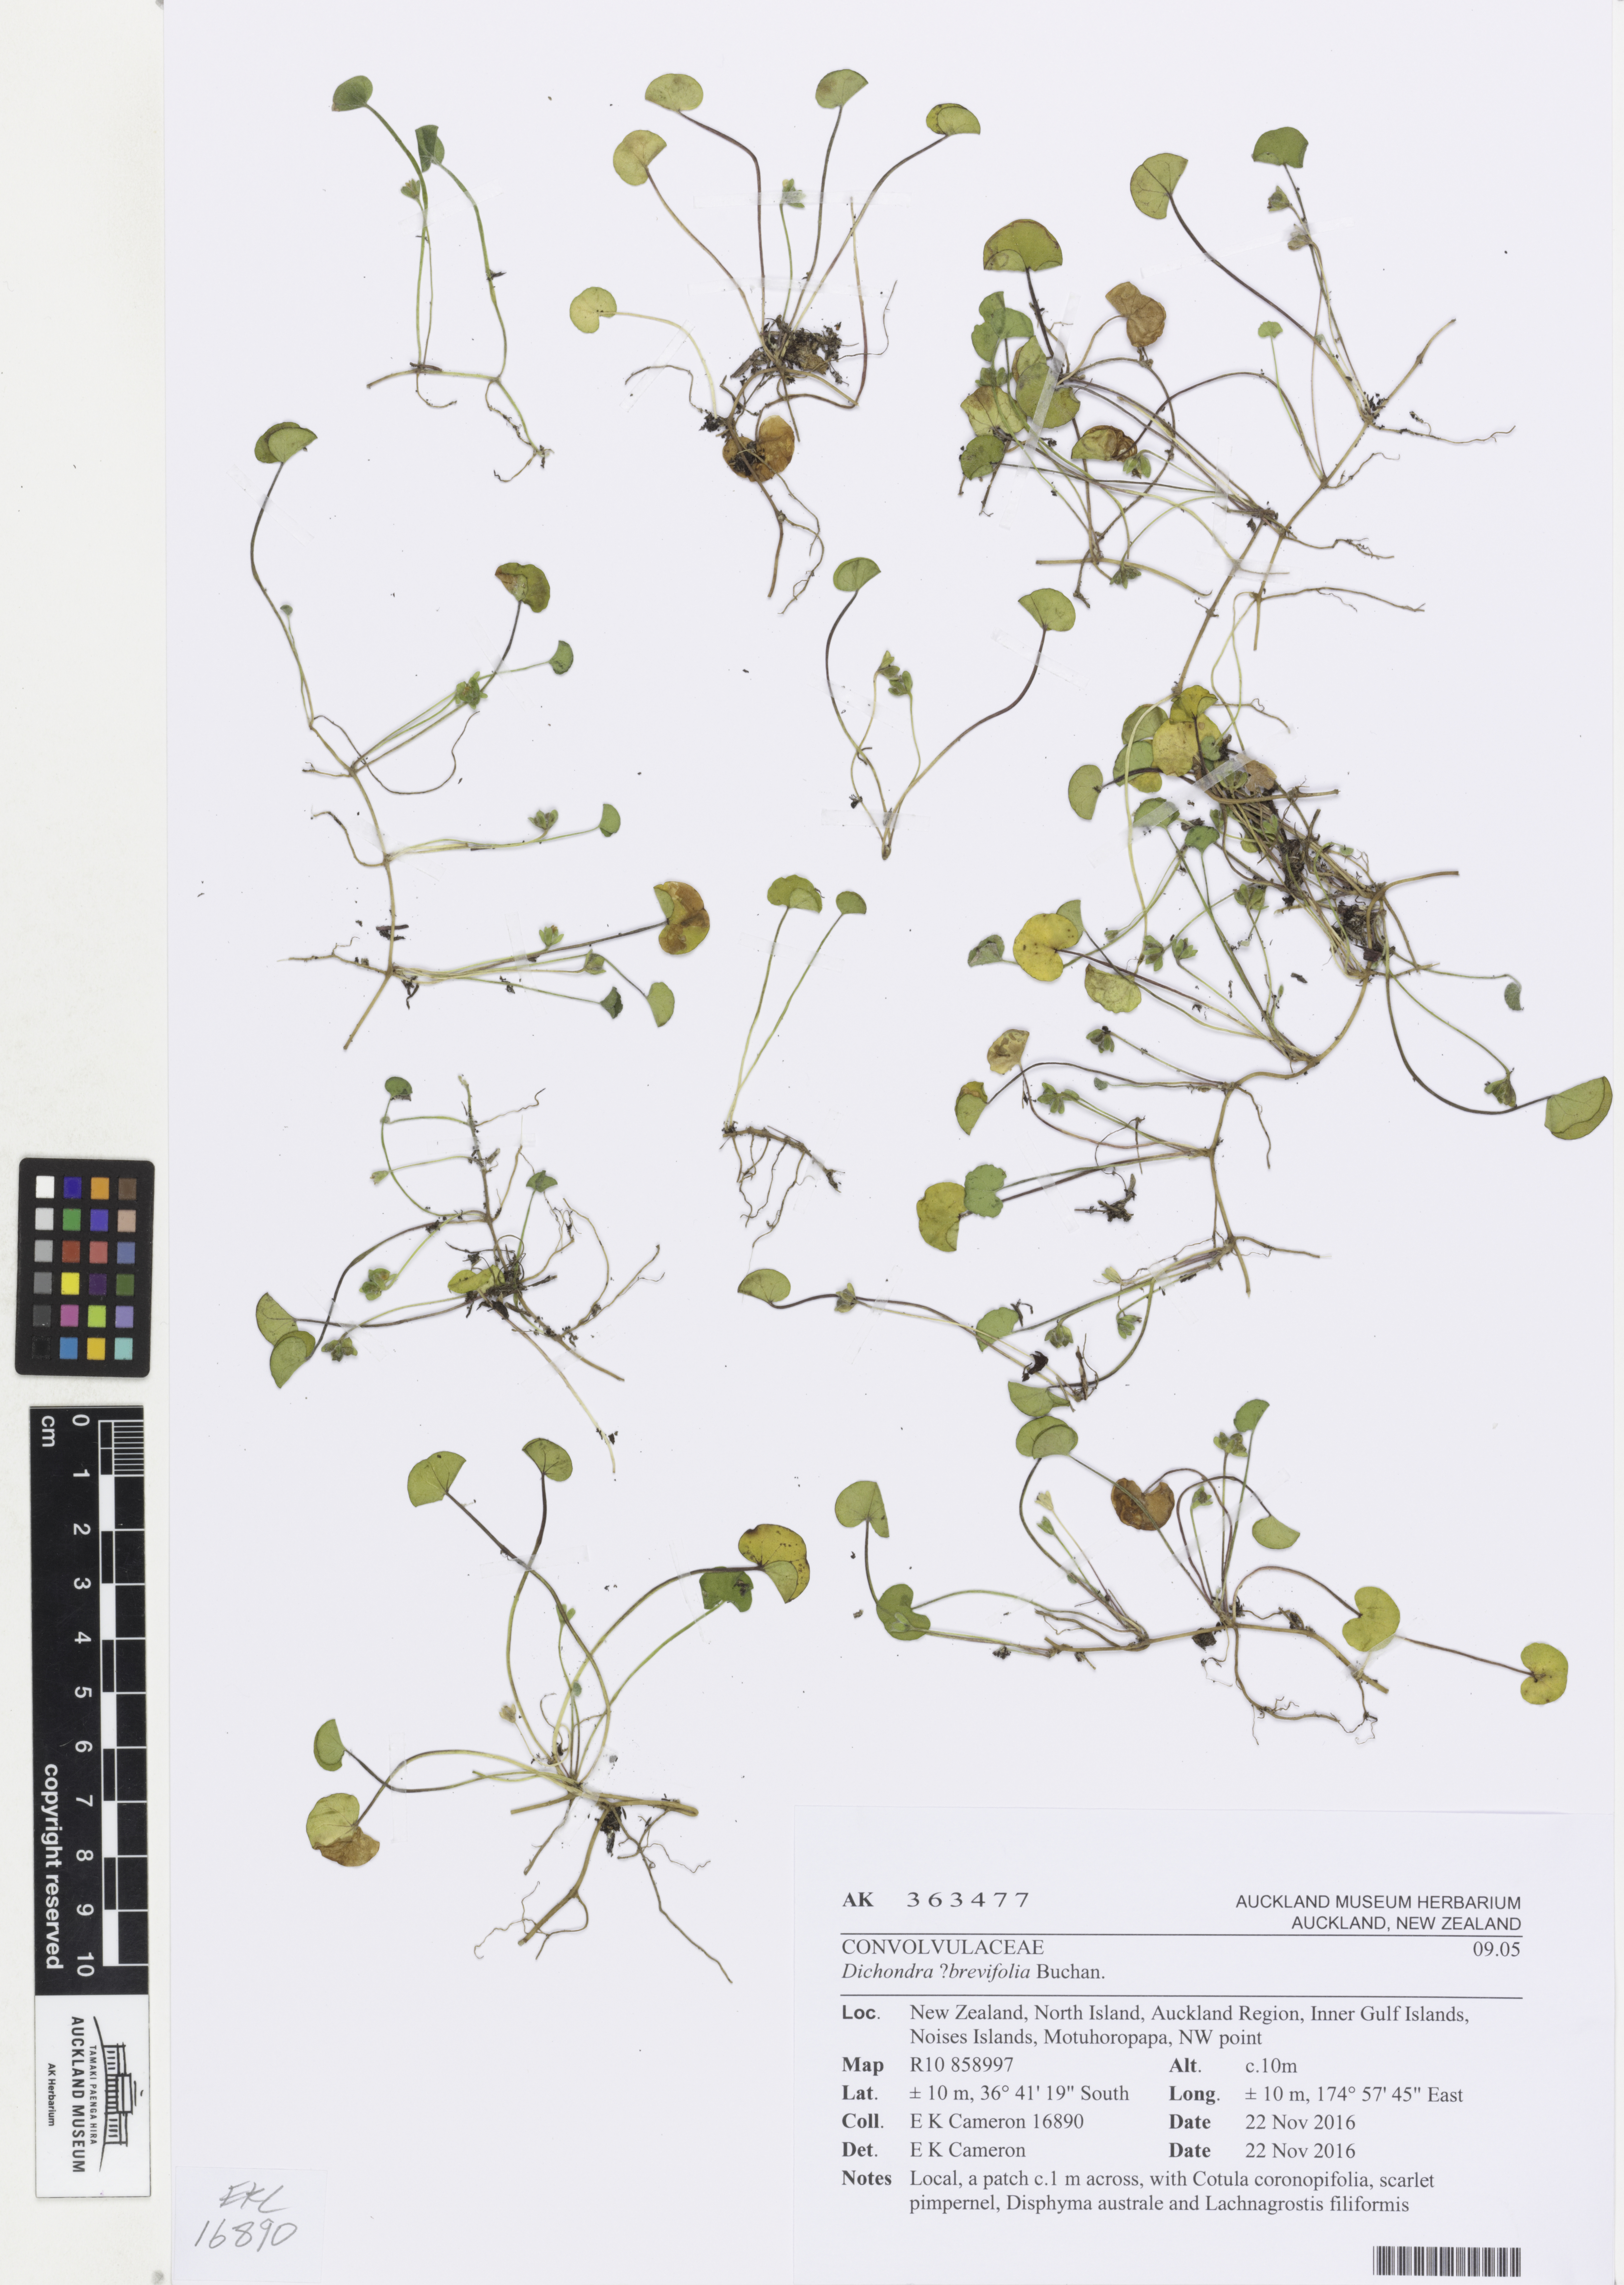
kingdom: Plantae
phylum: Tracheophyta
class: Magnoliopsida
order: Solanales
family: Convolvulaceae
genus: Dichondra
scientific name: Dichondra brevifolia
